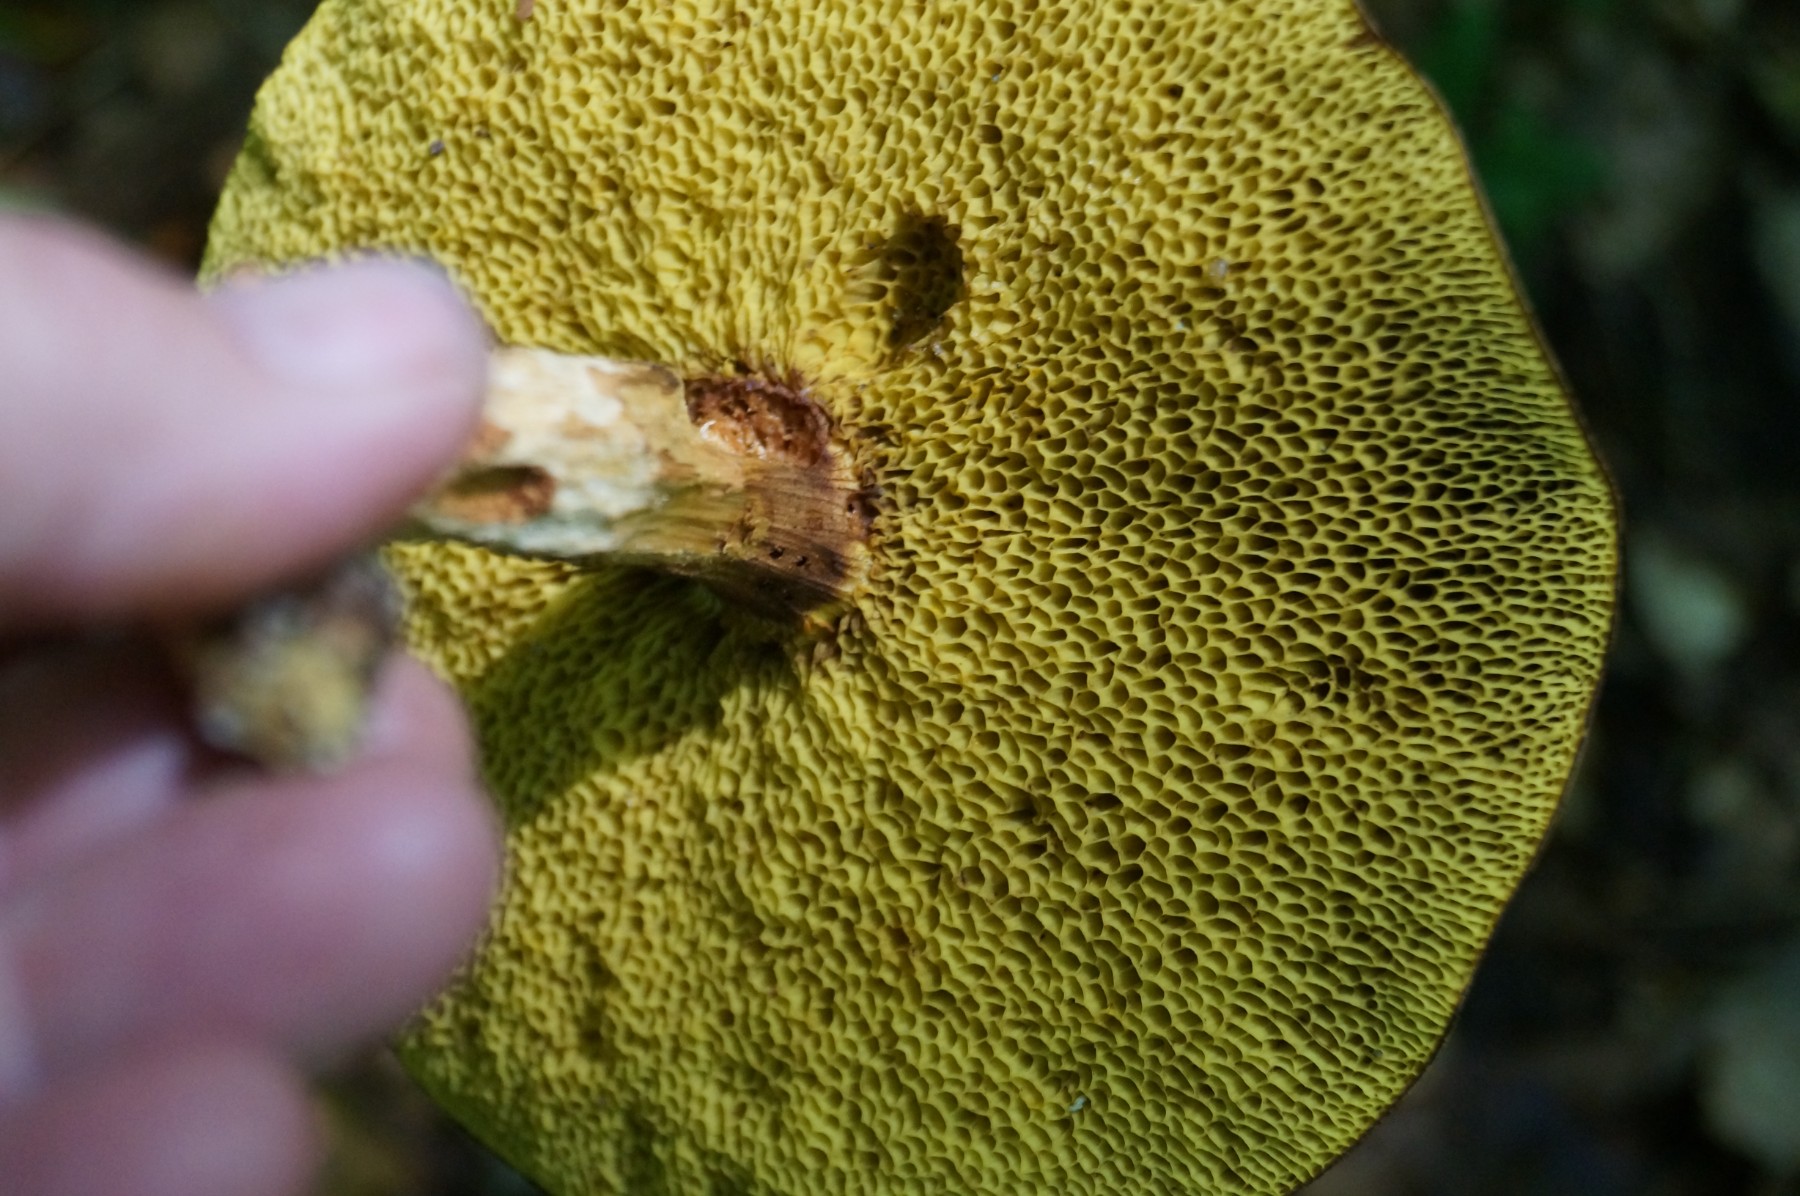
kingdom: Fungi
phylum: Basidiomycota
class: Agaricomycetes
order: Boletales
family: Boletaceae
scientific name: Boletaceae
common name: rørhatfamilien
